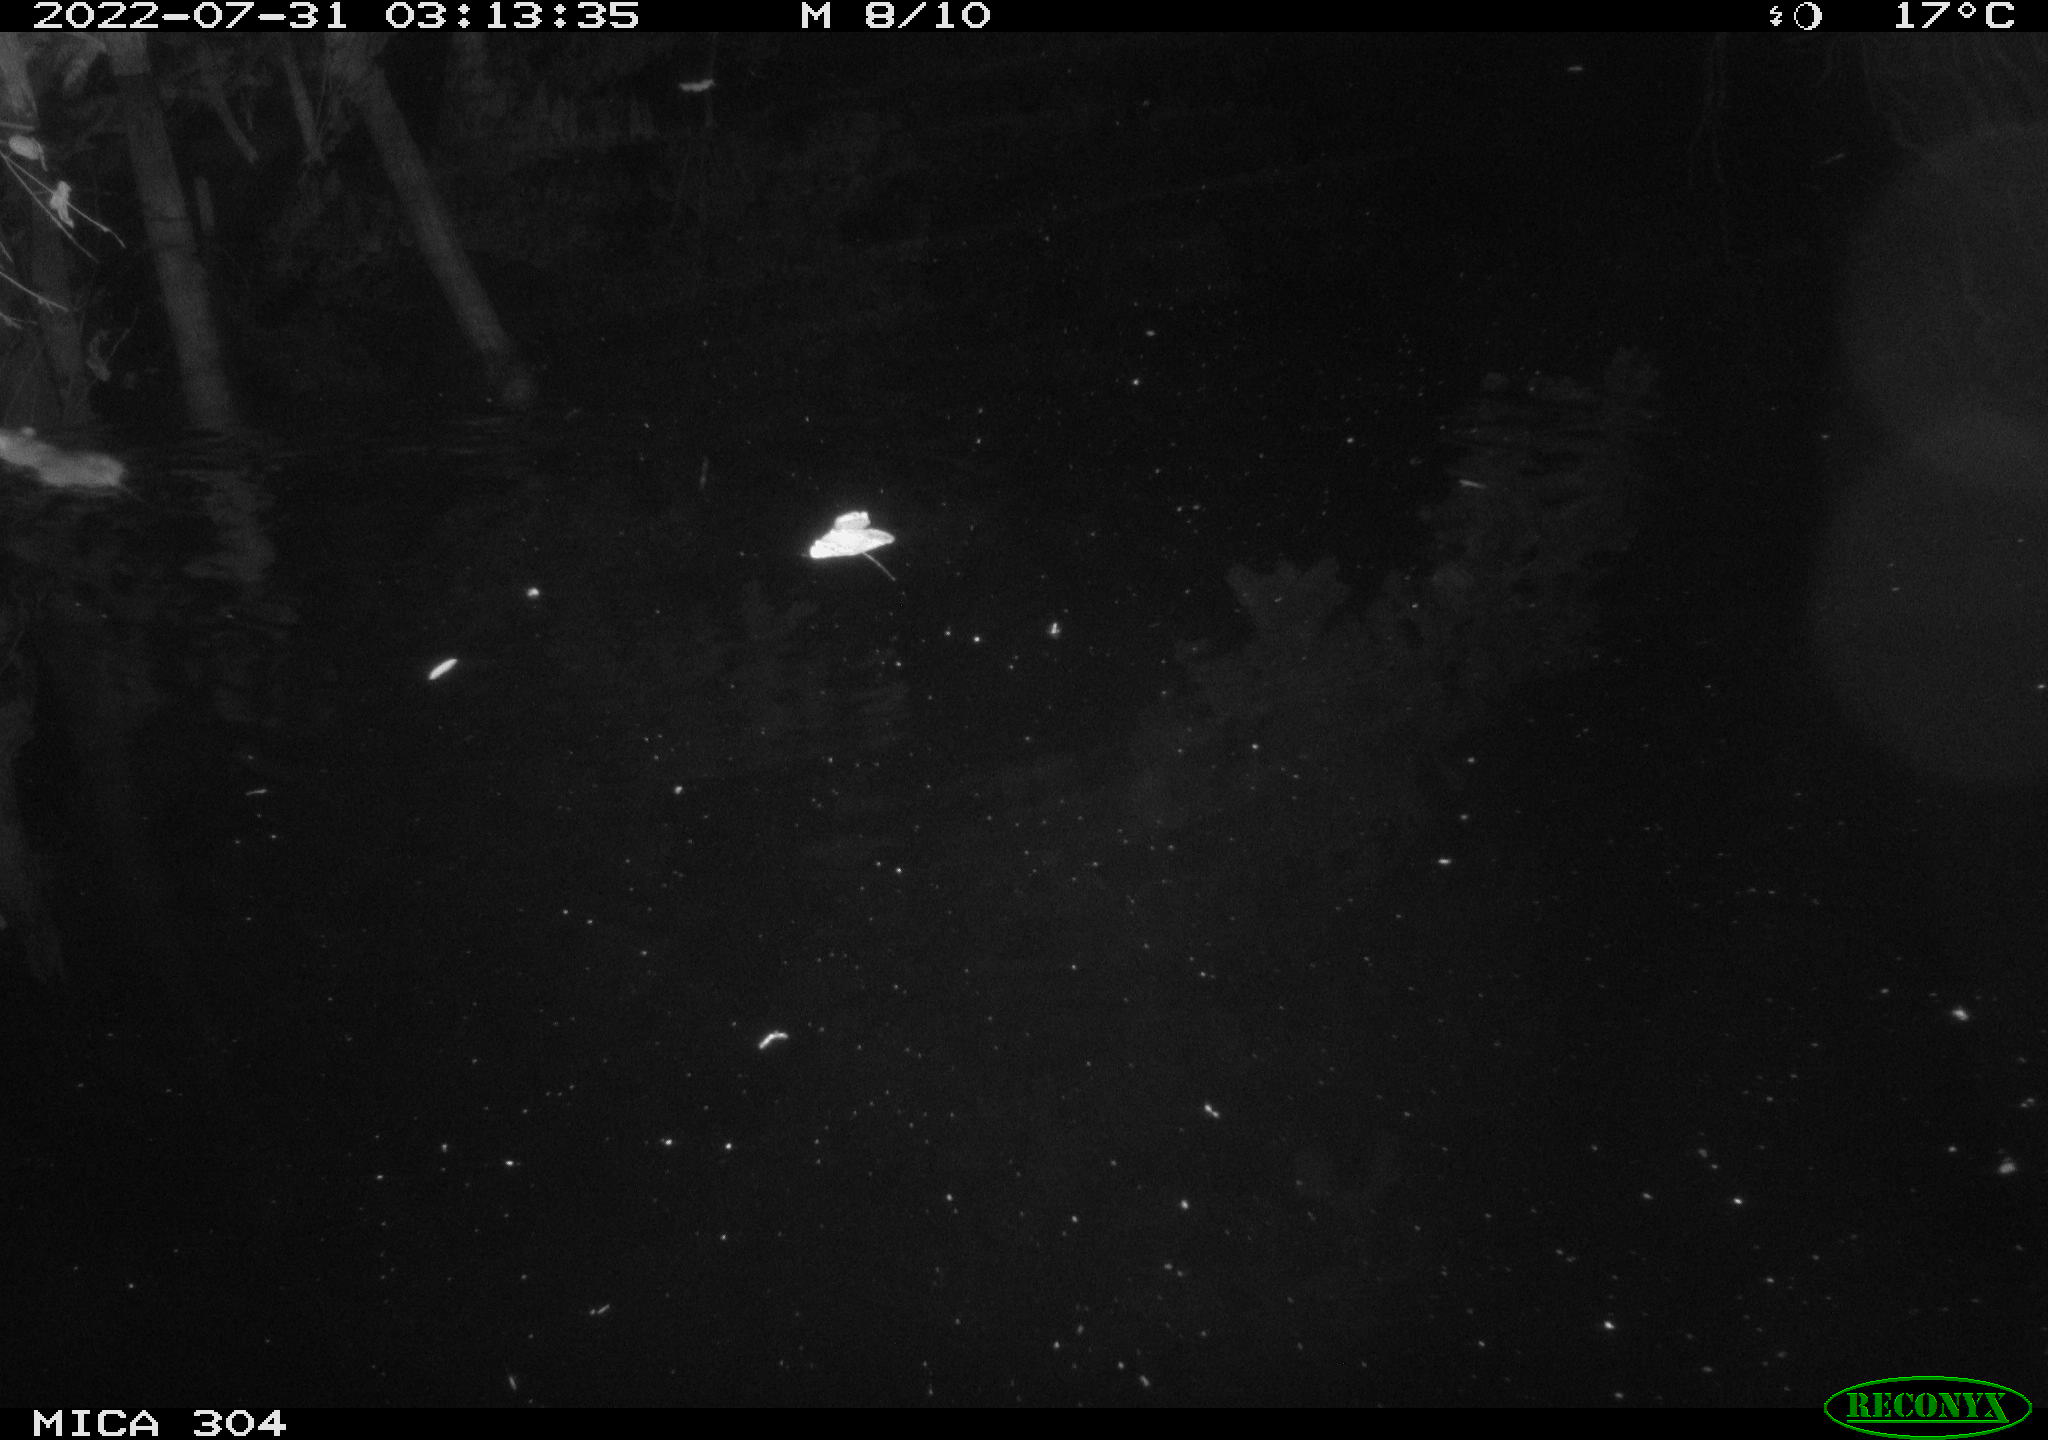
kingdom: Animalia
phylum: Chordata
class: Mammalia
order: Rodentia
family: Muridae
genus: Rattus
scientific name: Rattus norvegicus
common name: Brown rat
